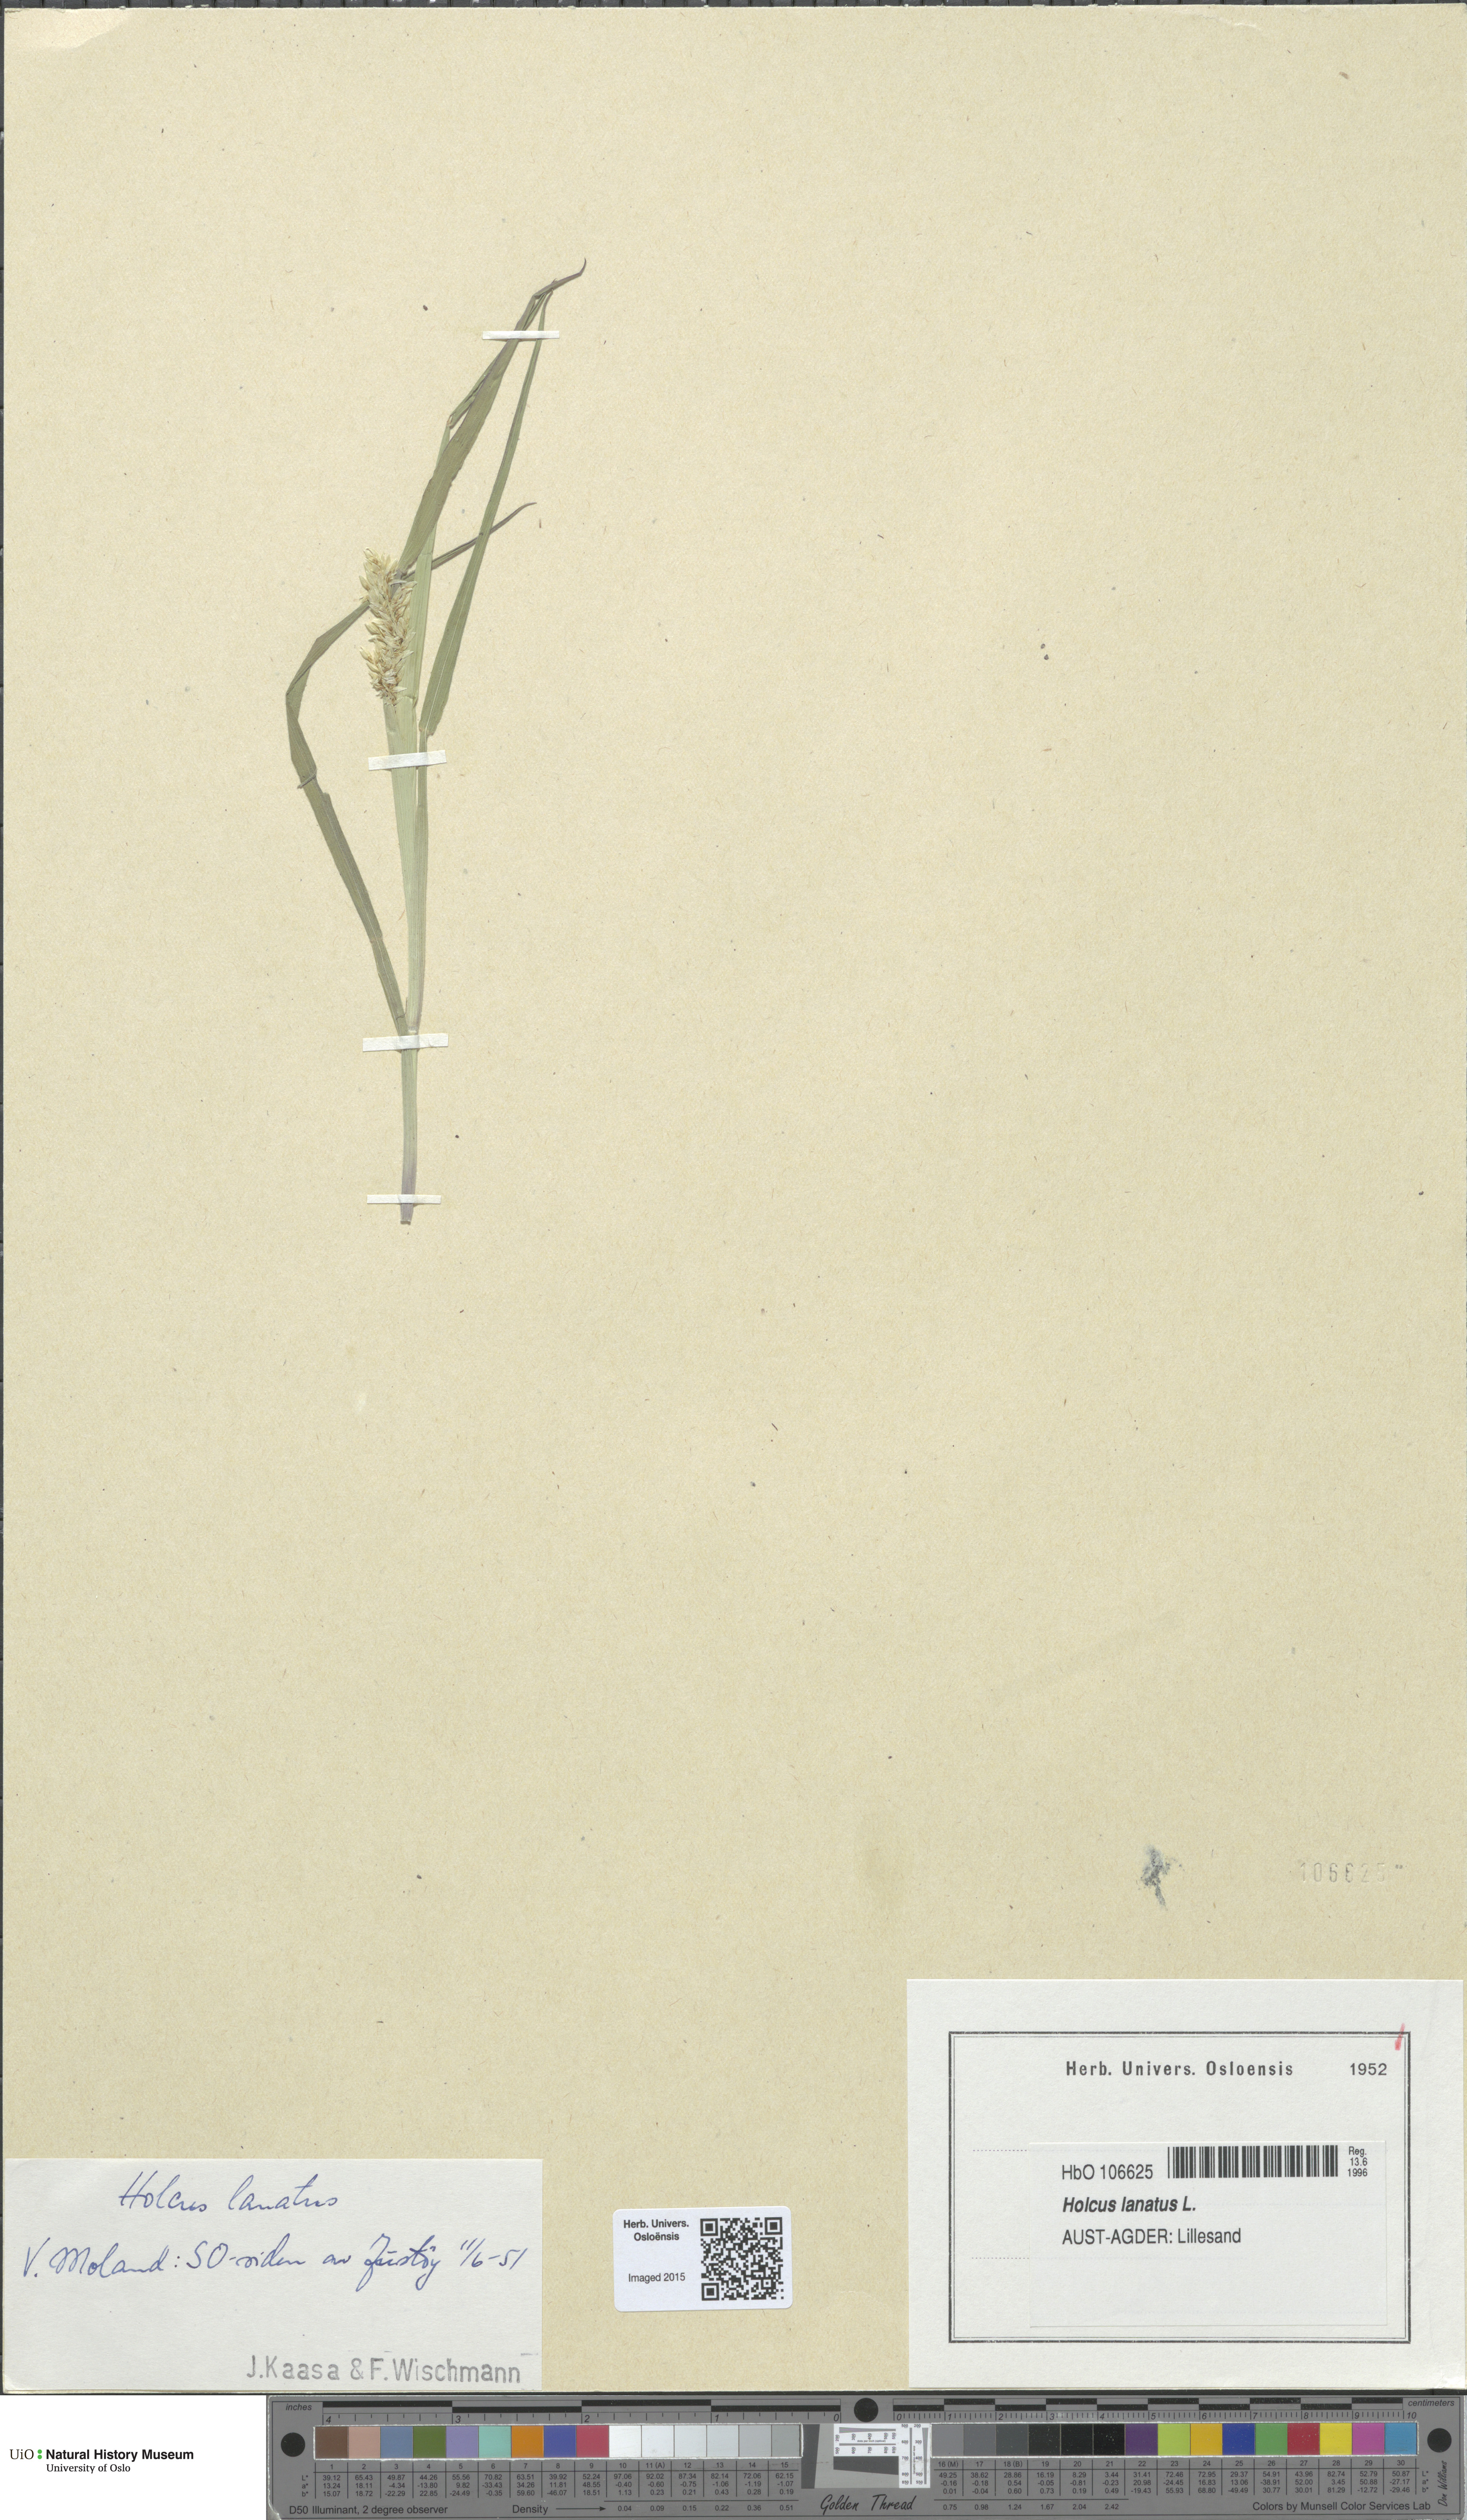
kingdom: Plantae
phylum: Tracheophyta
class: Liliopsida
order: Poales
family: Poaceae
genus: Holcus
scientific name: Holcus lanatus
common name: Yorkshire-fog
